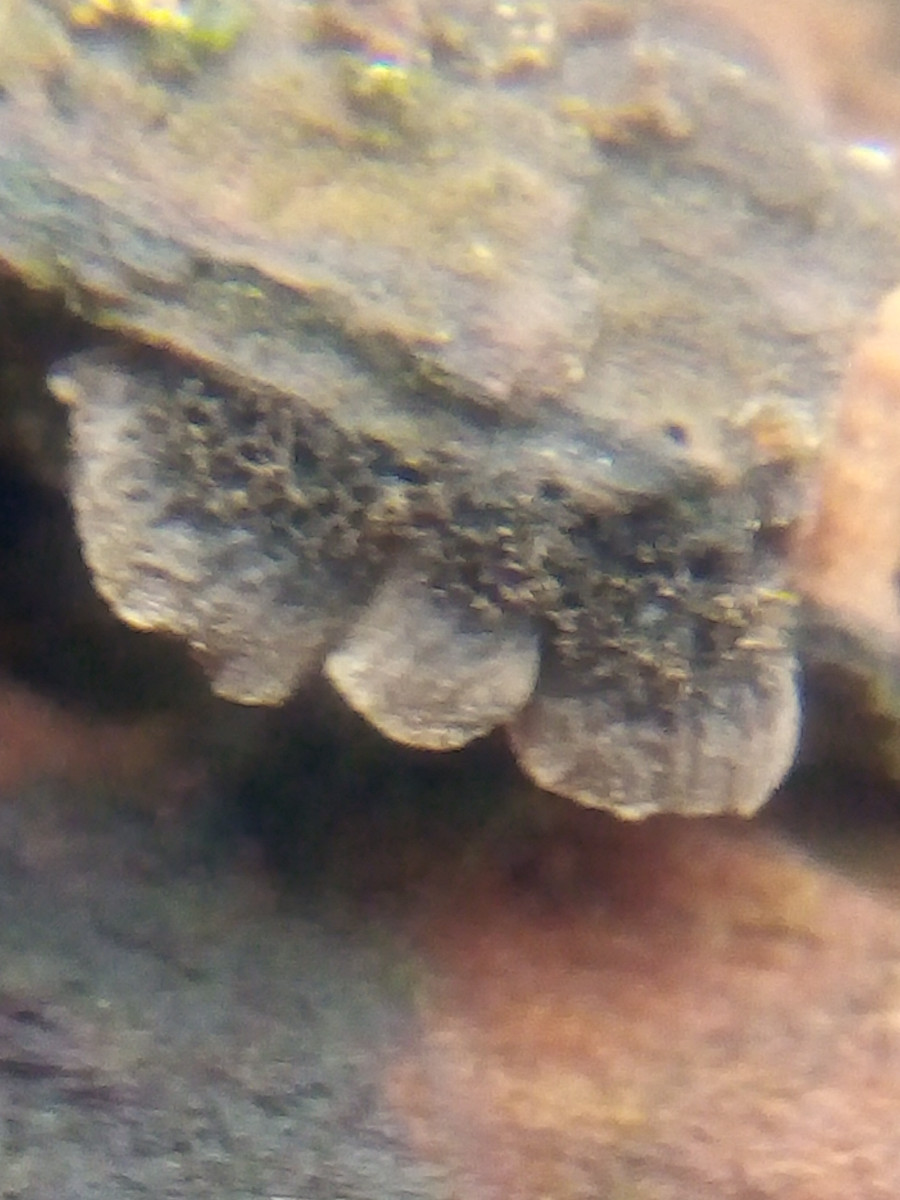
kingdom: Fungi
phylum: Basidiomycota
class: Agaricomycetes
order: Agaricales
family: Pleurotaceae
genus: Resupinatus
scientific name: Resupinatus trichotis
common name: mørkfiltet barkhat
